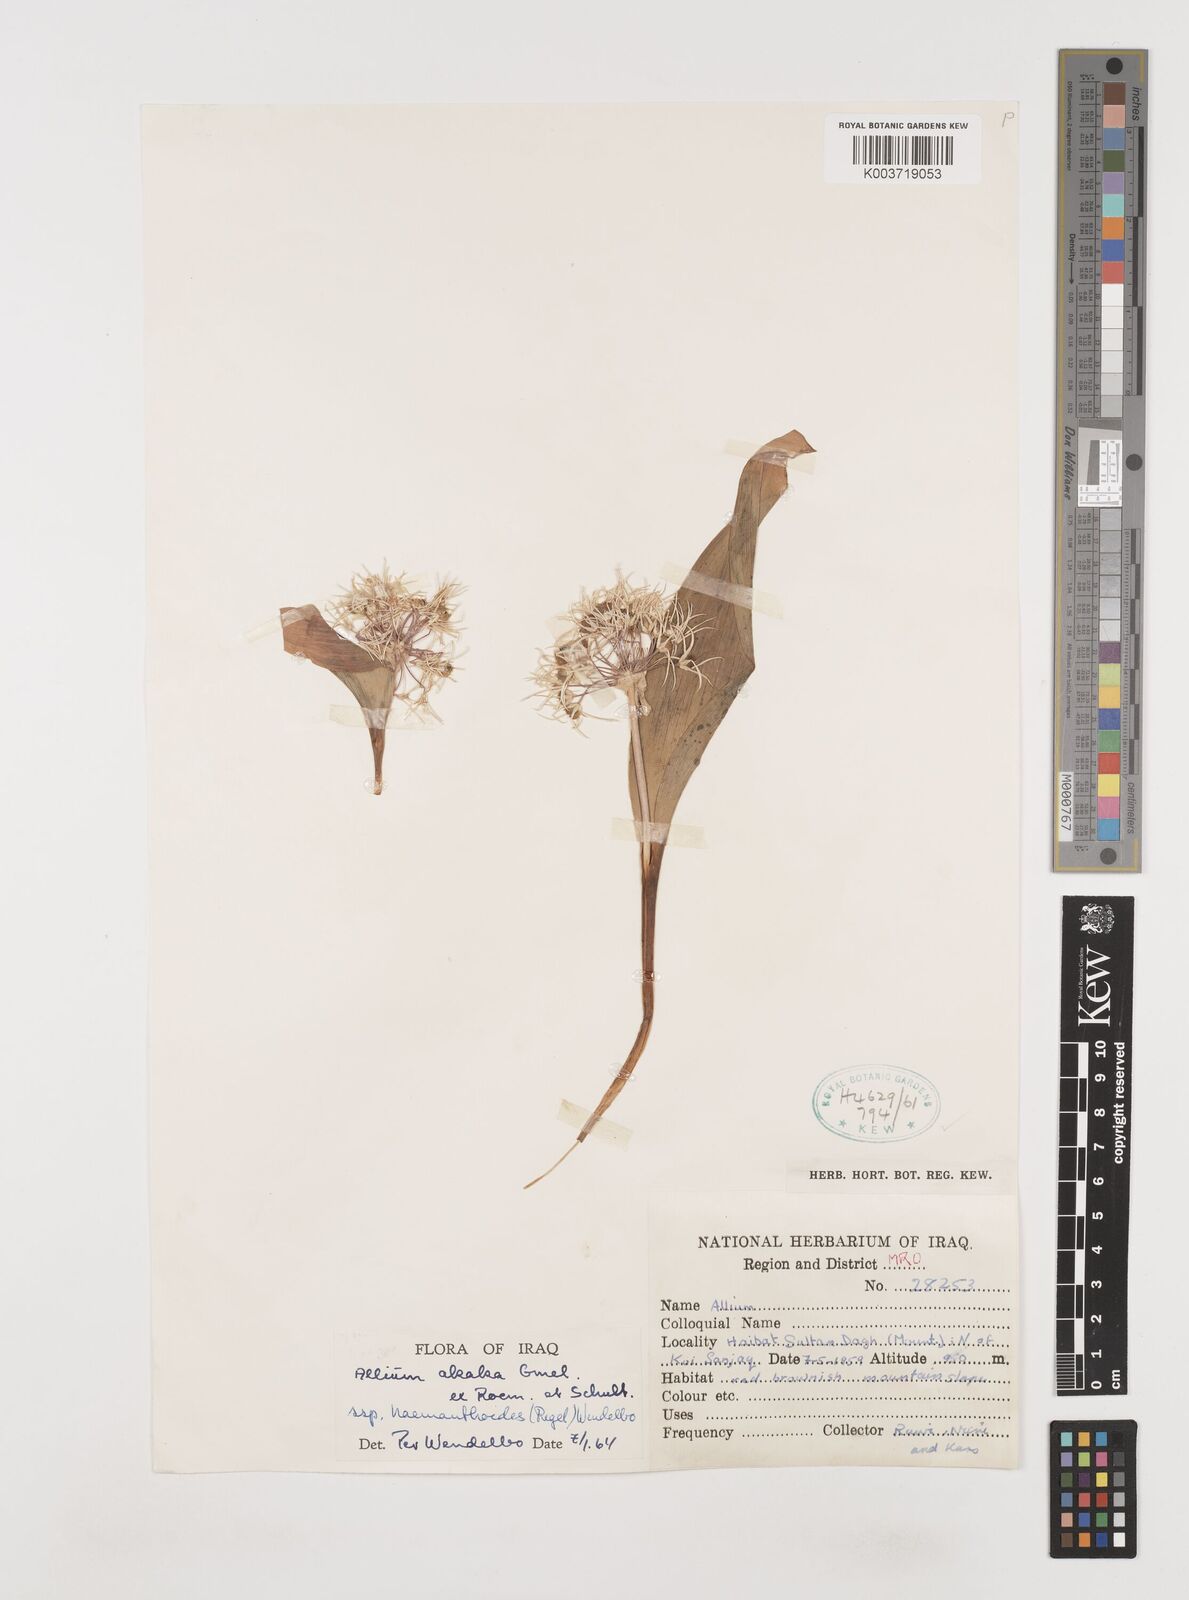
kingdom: Plantae
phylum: Tracheophyta
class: Liliopsida
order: Asparagales
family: Amaryllidaceae
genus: Allium
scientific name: Allium haemanthoides
